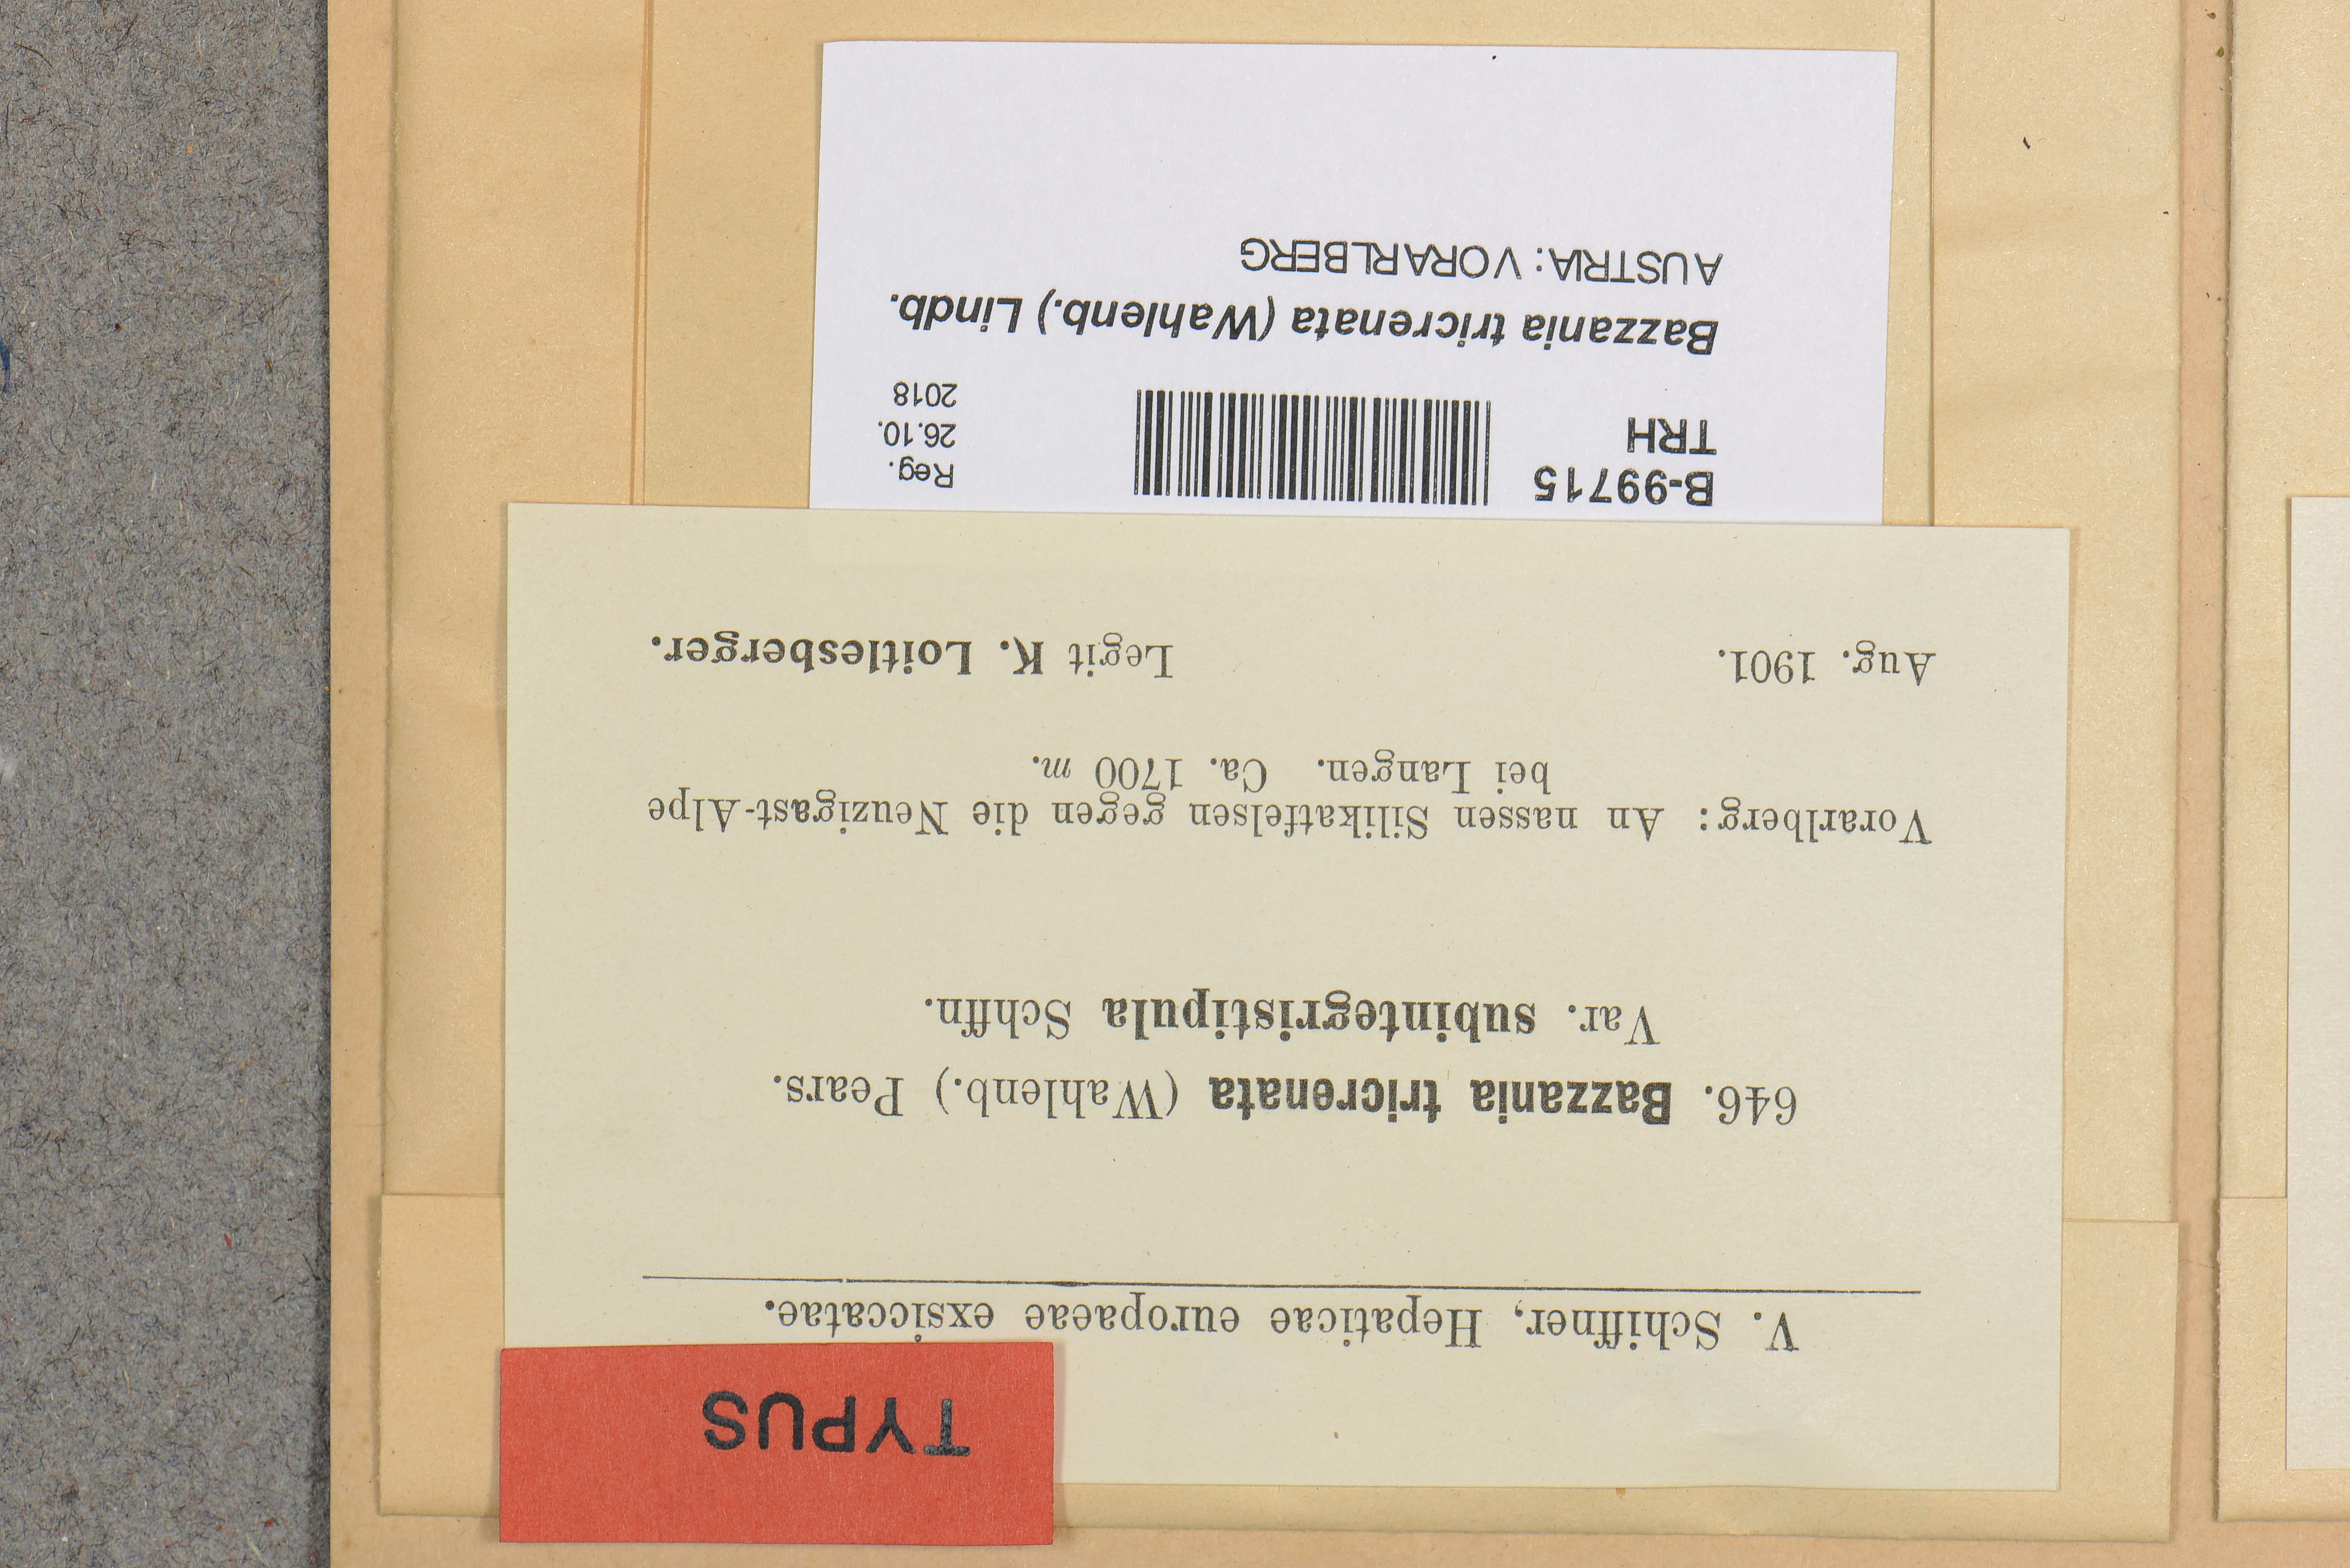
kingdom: Plantae
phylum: Marchantiophyta
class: Jungermanniopsida
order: Jungermanniales
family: Lepidoziaceae
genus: Bazzania
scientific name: Bazzania tricrenata
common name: Lesser whipwort
